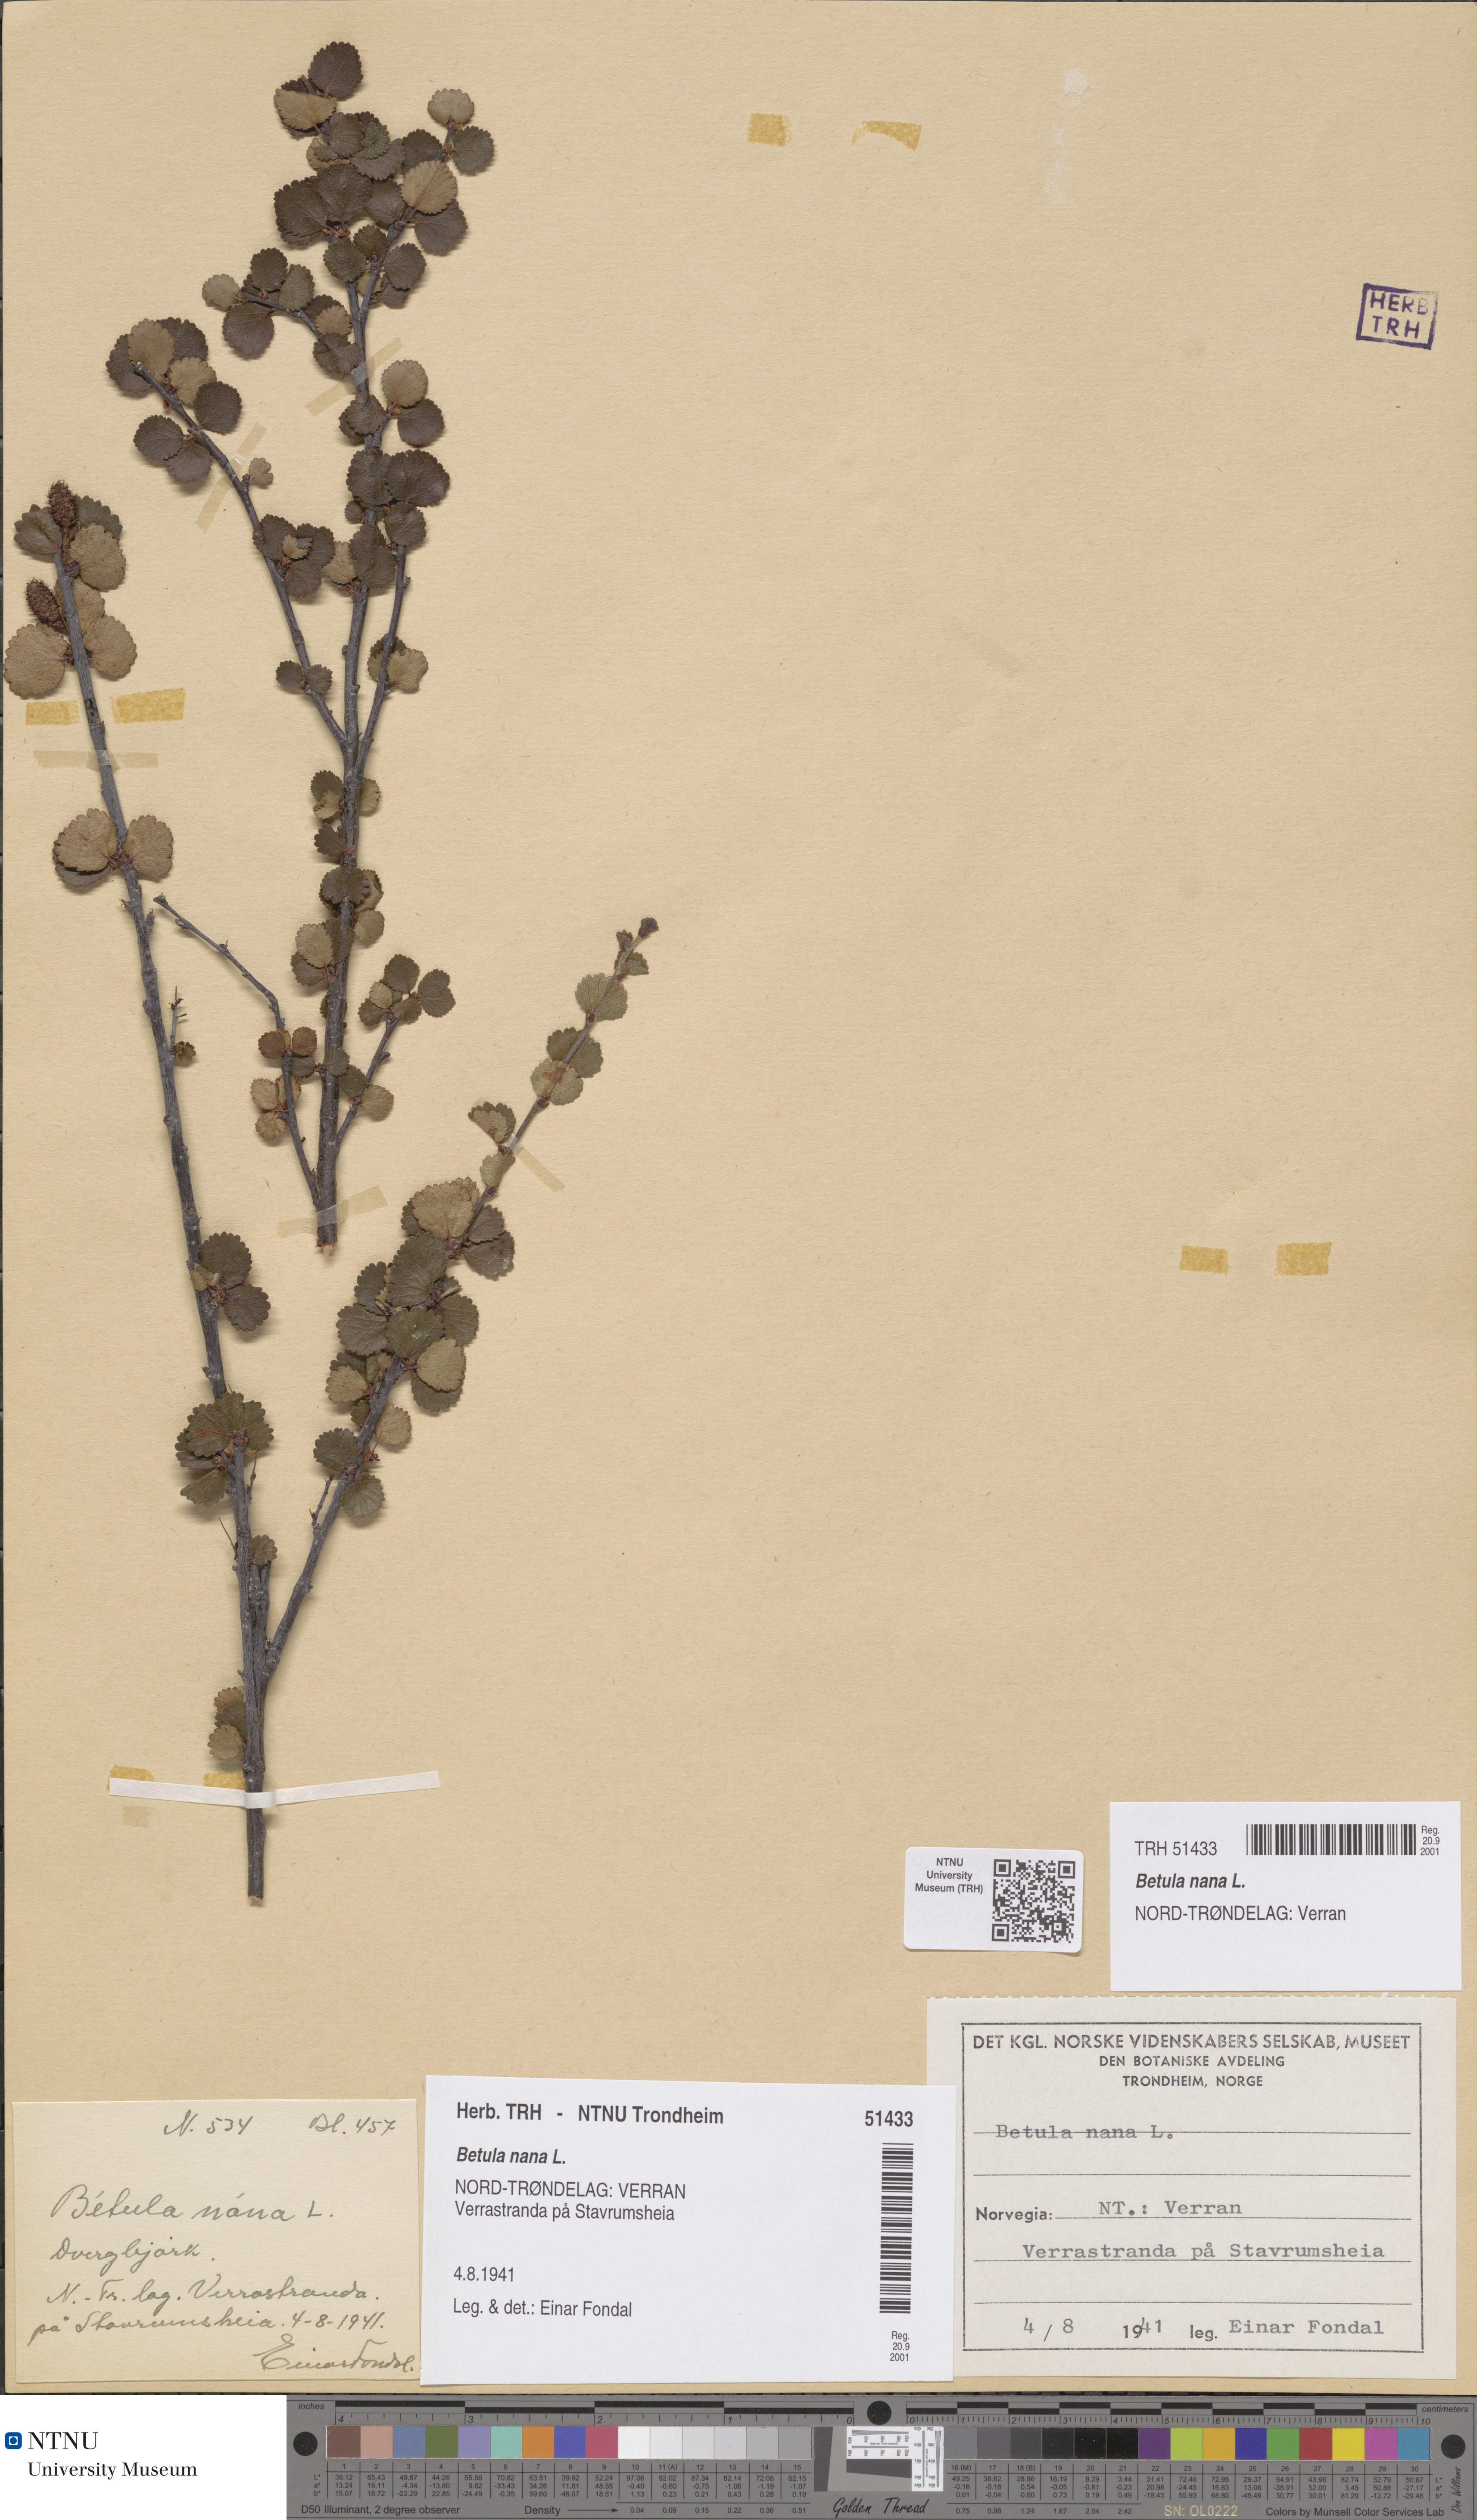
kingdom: Plantae
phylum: Tracheophyta
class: Magnoliopsida
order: Fagales
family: Betulaceae
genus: Betula
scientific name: Betula nana
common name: Arctic dwarf birch
